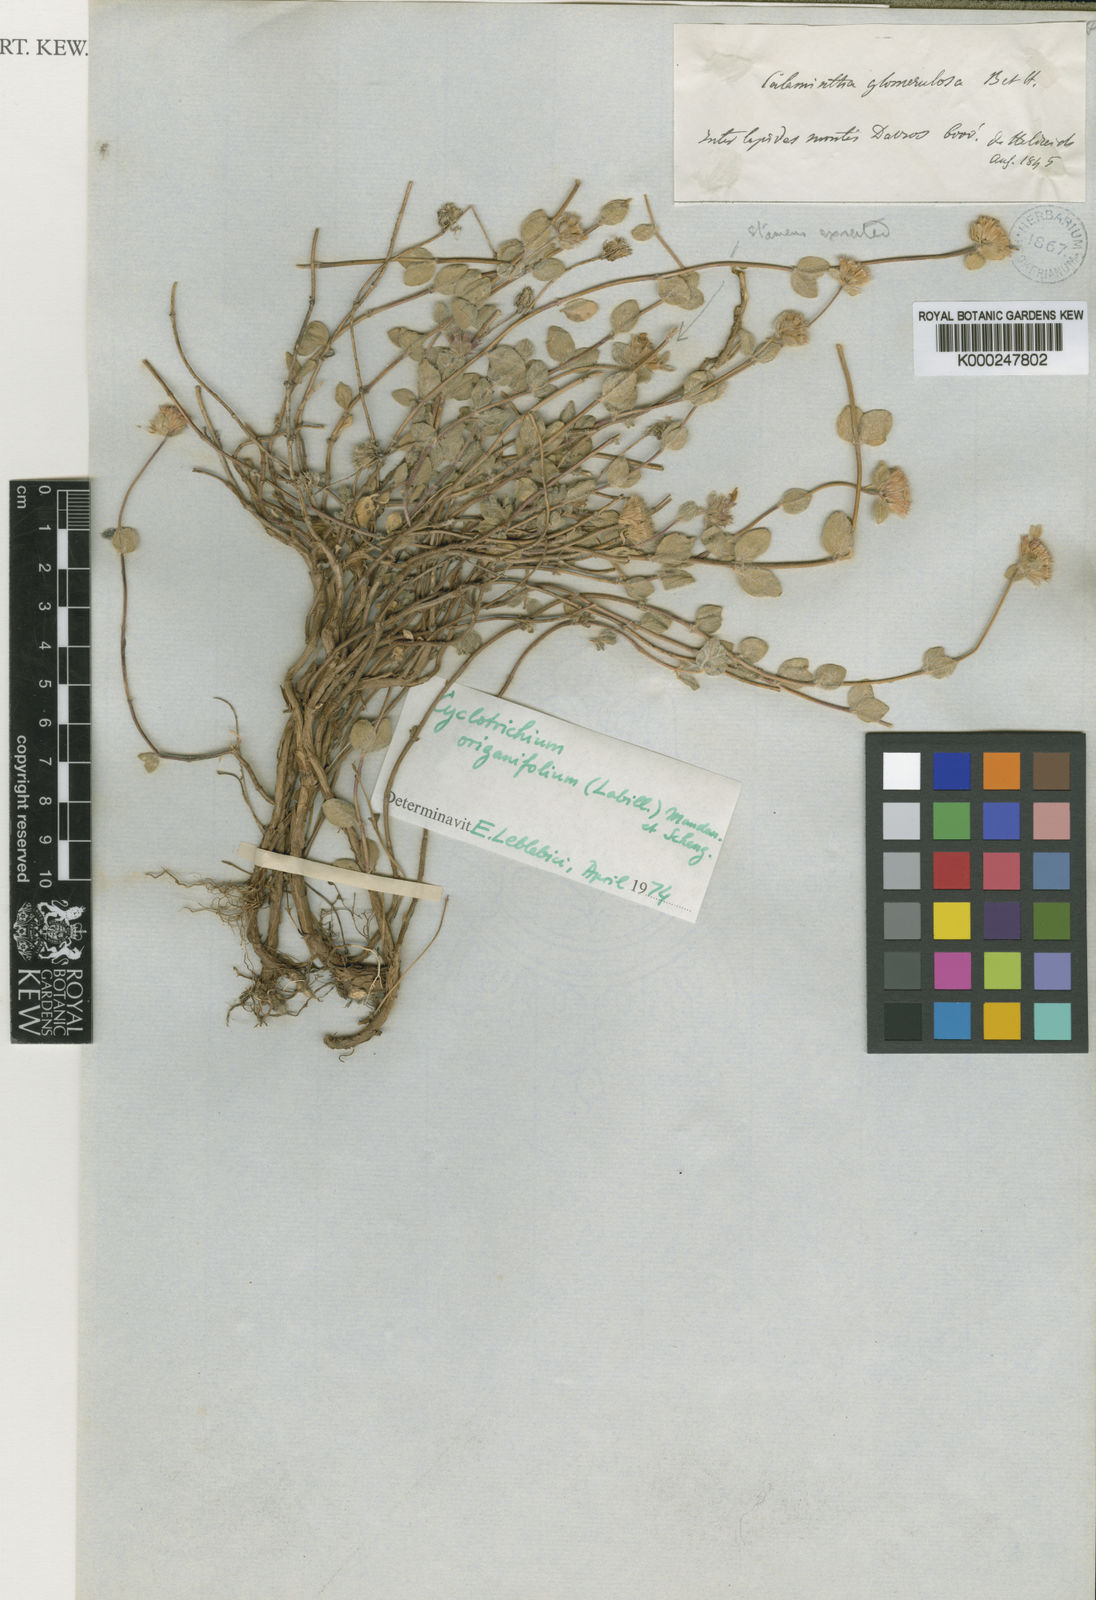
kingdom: Plantae
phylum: Tracheophyta
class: Magnoliopsida
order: Lamiales
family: Lamiaceae
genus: Cyclotrichium
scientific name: Cyclotrichium origanifolium
